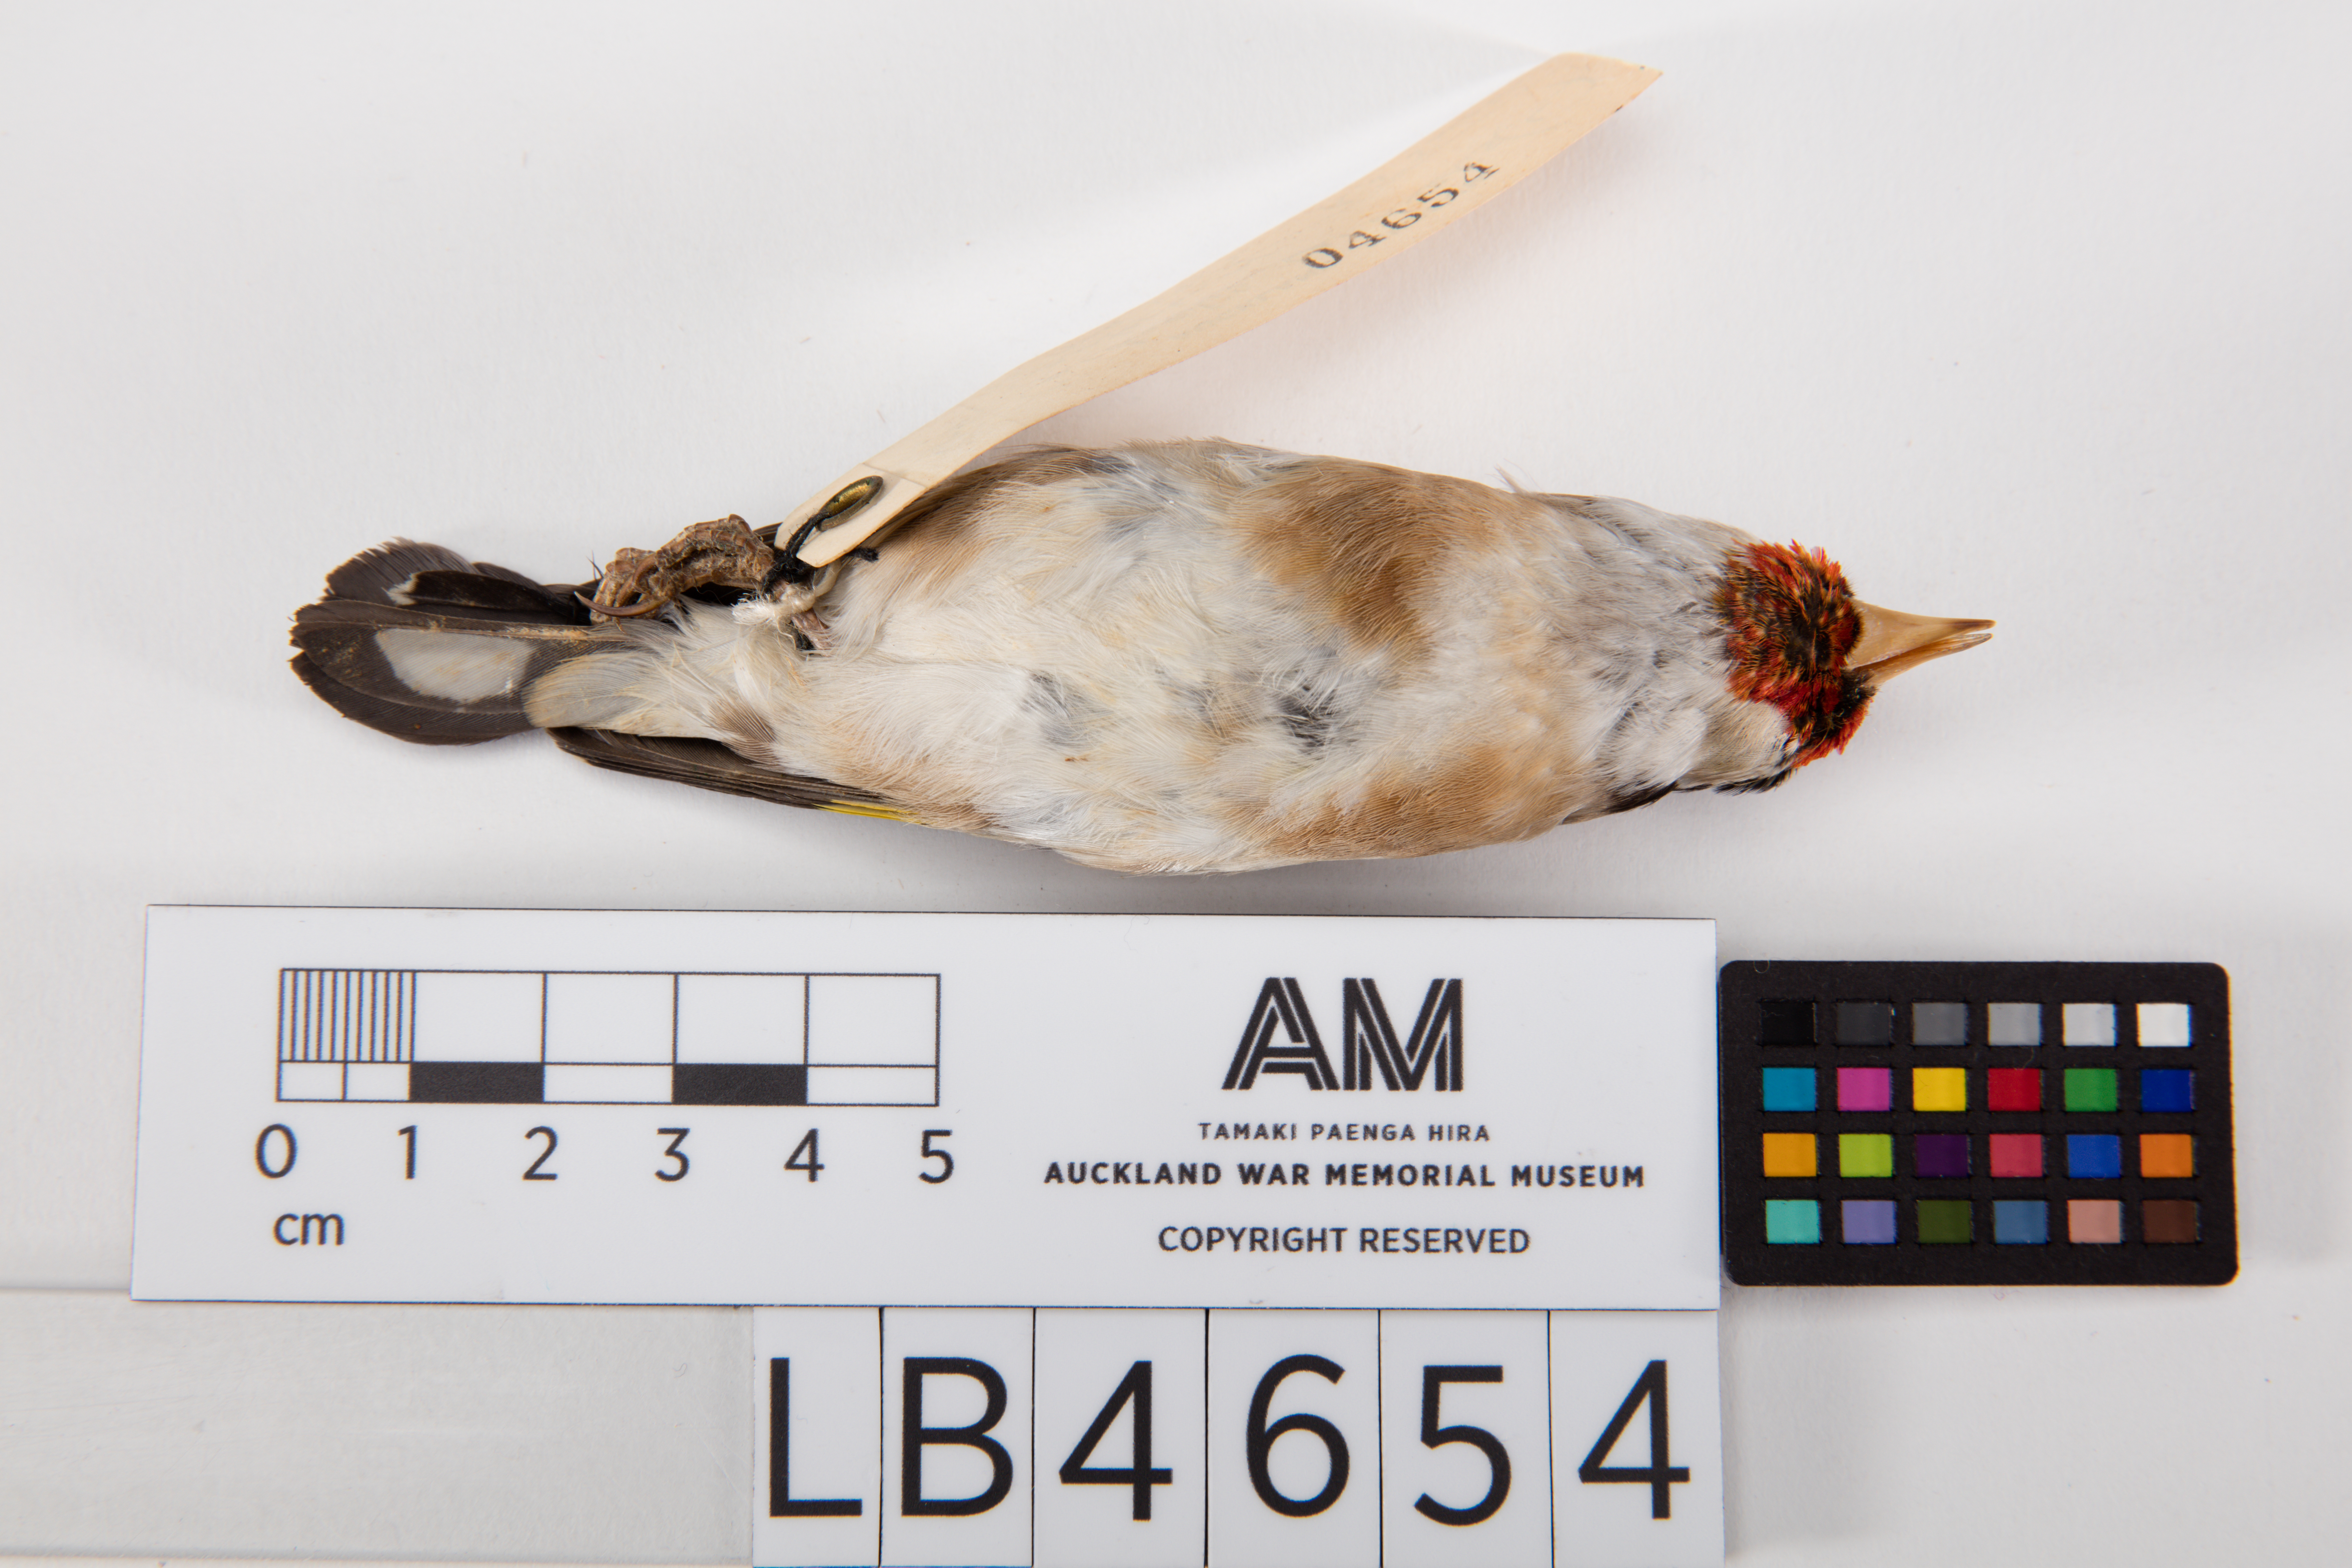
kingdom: Animalia
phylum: Chordata
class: Aves
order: Passeriformes
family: Fringillidae
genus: Carduelis
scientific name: Carduelis carduelis
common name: European goldfinch
